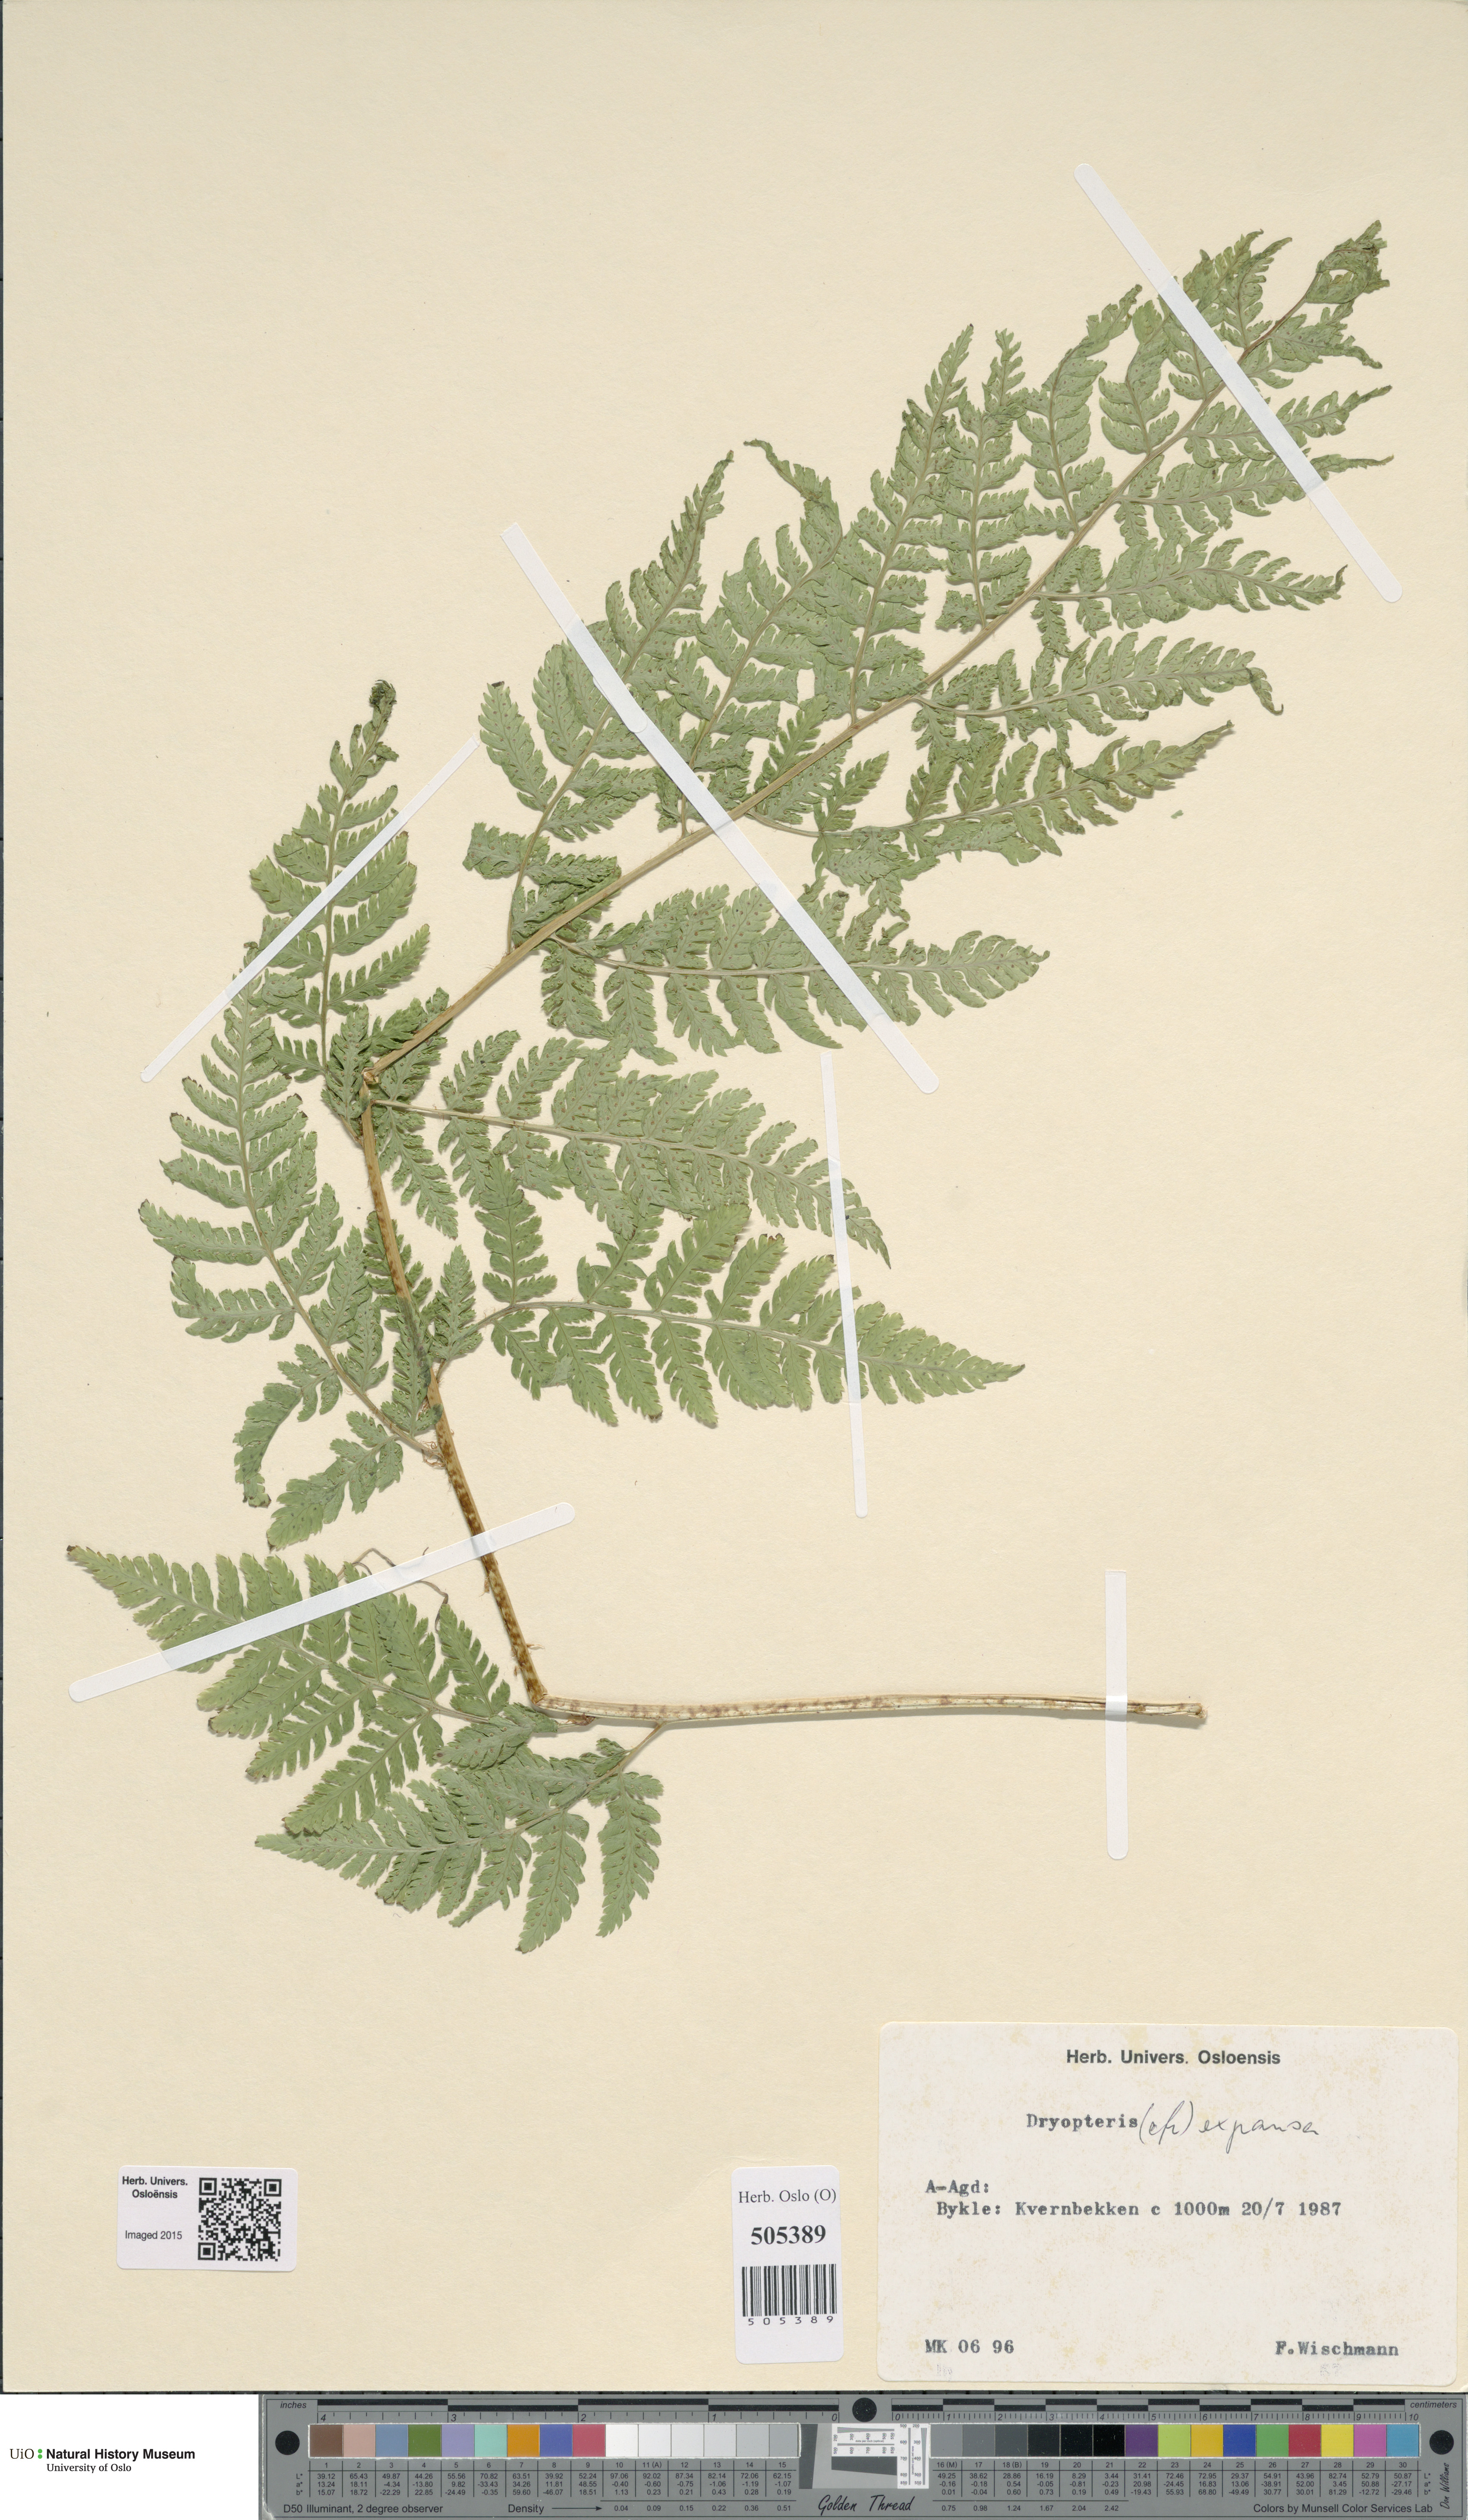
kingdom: Plantae
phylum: Tracheophyta
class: Polypodiopsida
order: Polypodiales
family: Dryopteridaceae
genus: Dryopteris
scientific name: Dryopteris expansa
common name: Northern buckler fern
